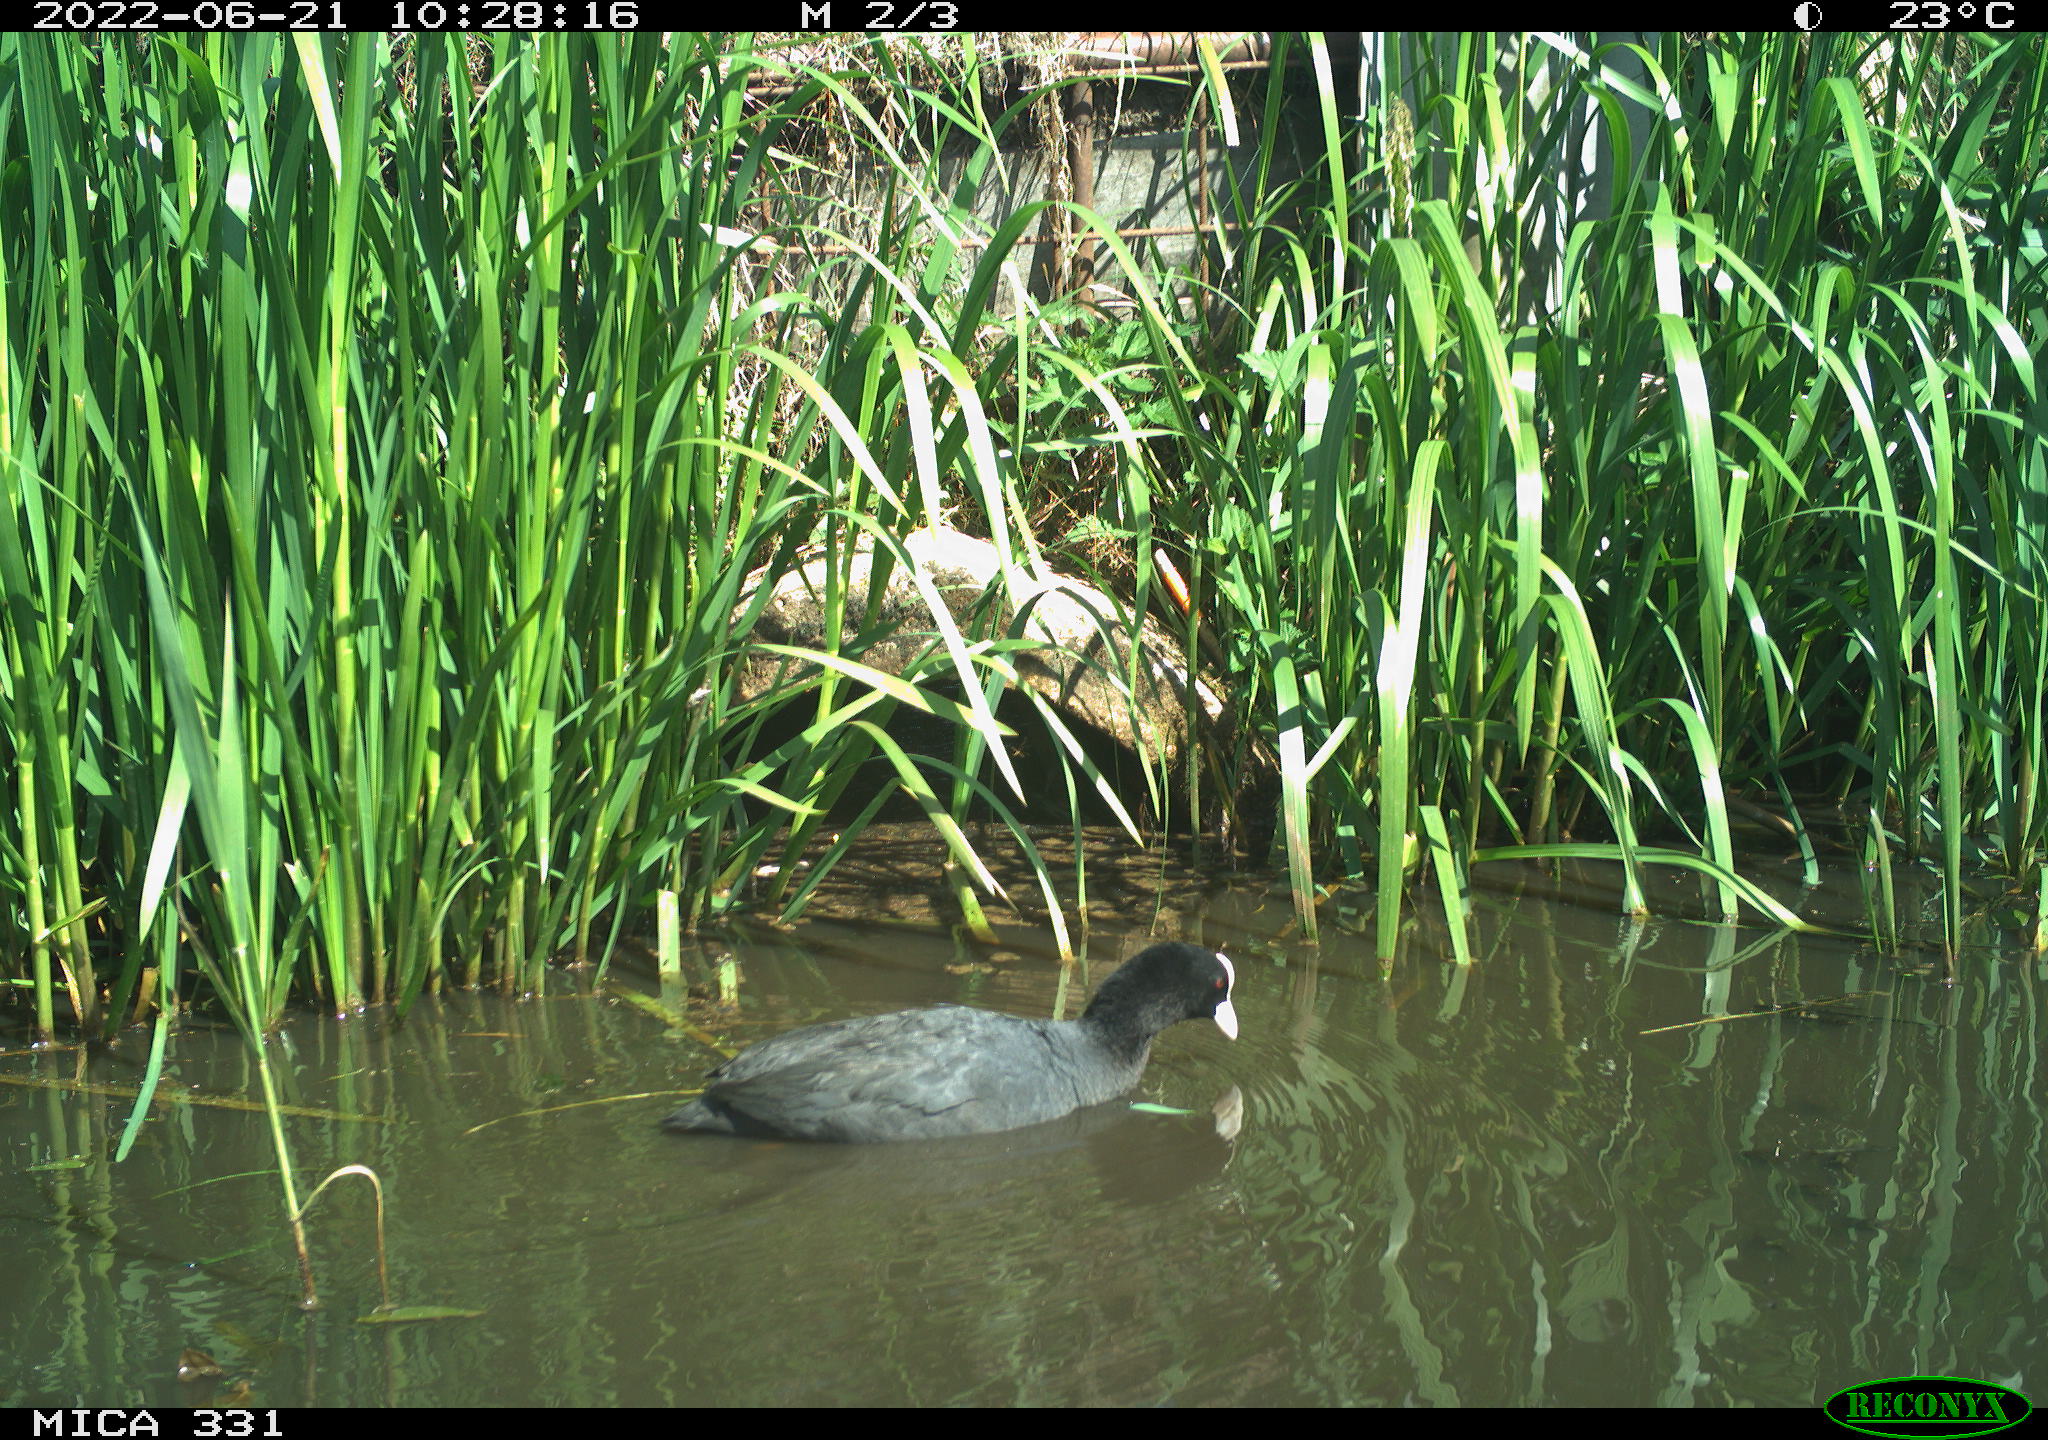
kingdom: Animalia
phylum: Chordata
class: Aves
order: Gruiformes
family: Rallidae
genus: Fulica
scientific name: Fulica atra
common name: Eurasian coot
